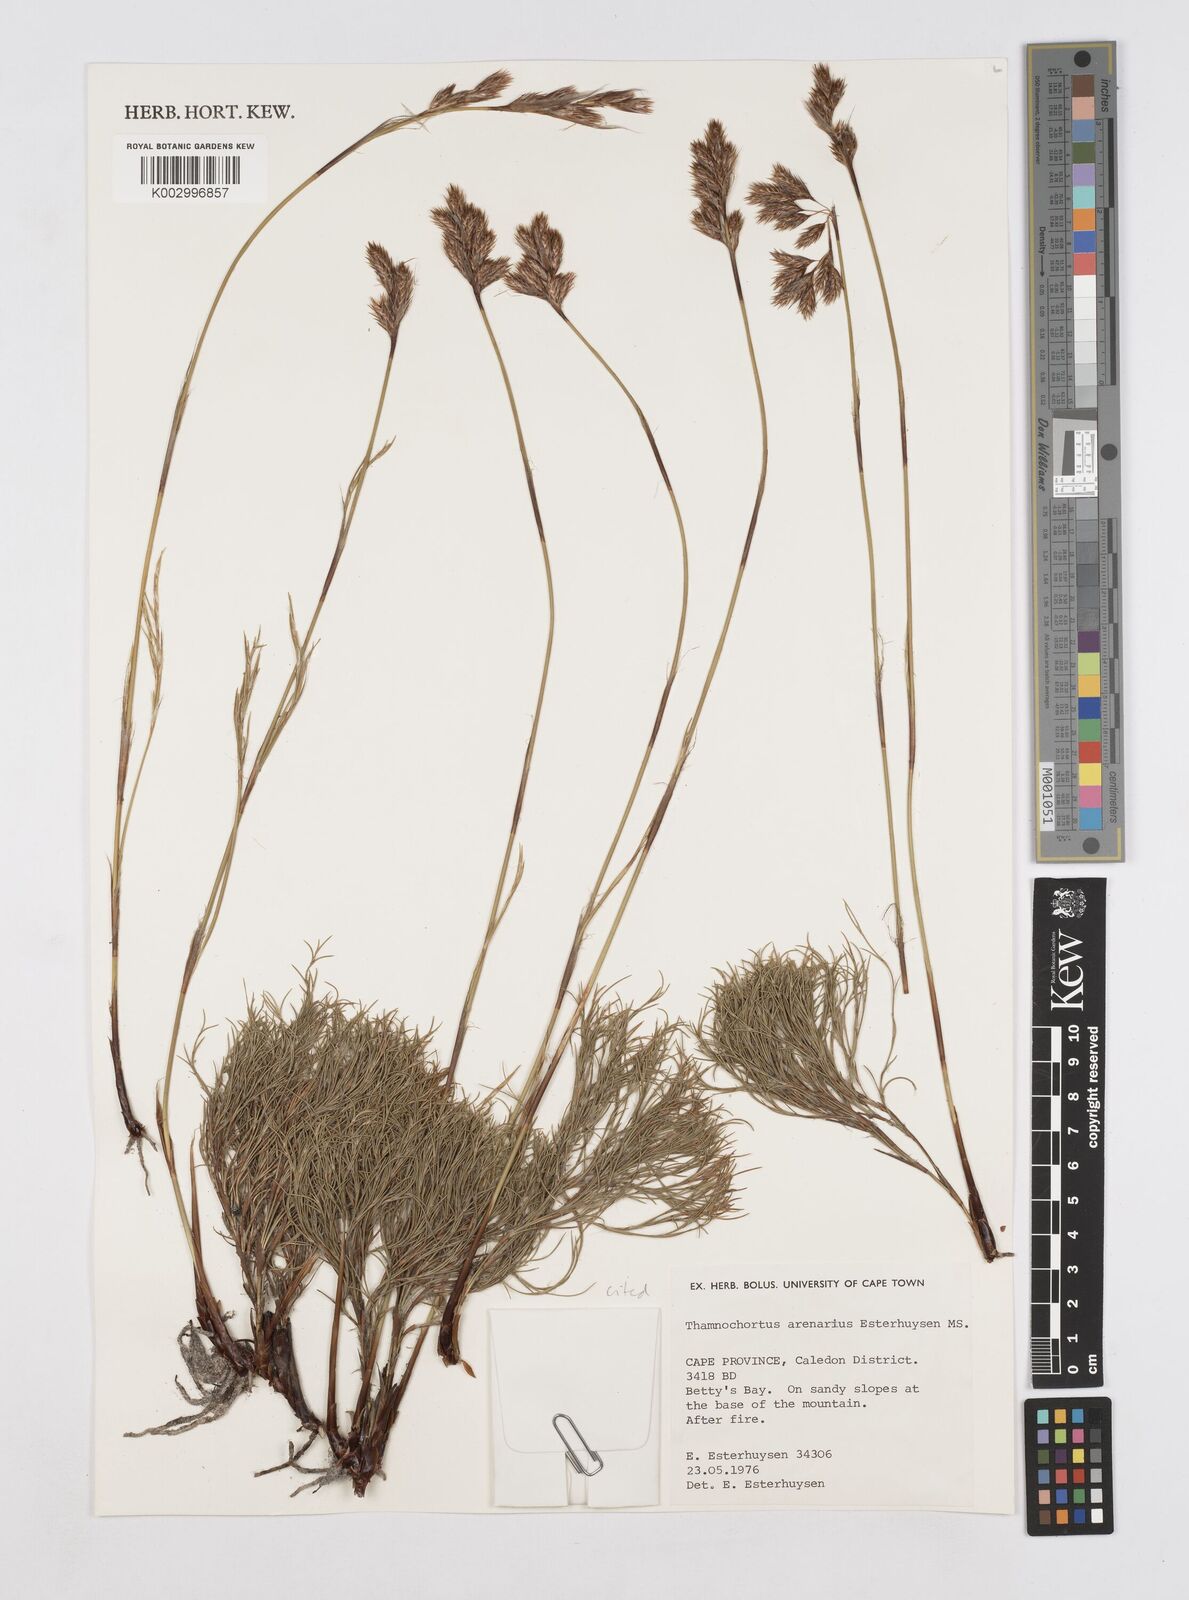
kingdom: Plantae
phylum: Tracheophyta
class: Liliopsida
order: Poales
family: Restionaceae
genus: Thamnochortus
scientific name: Thamnochortus arenarius
